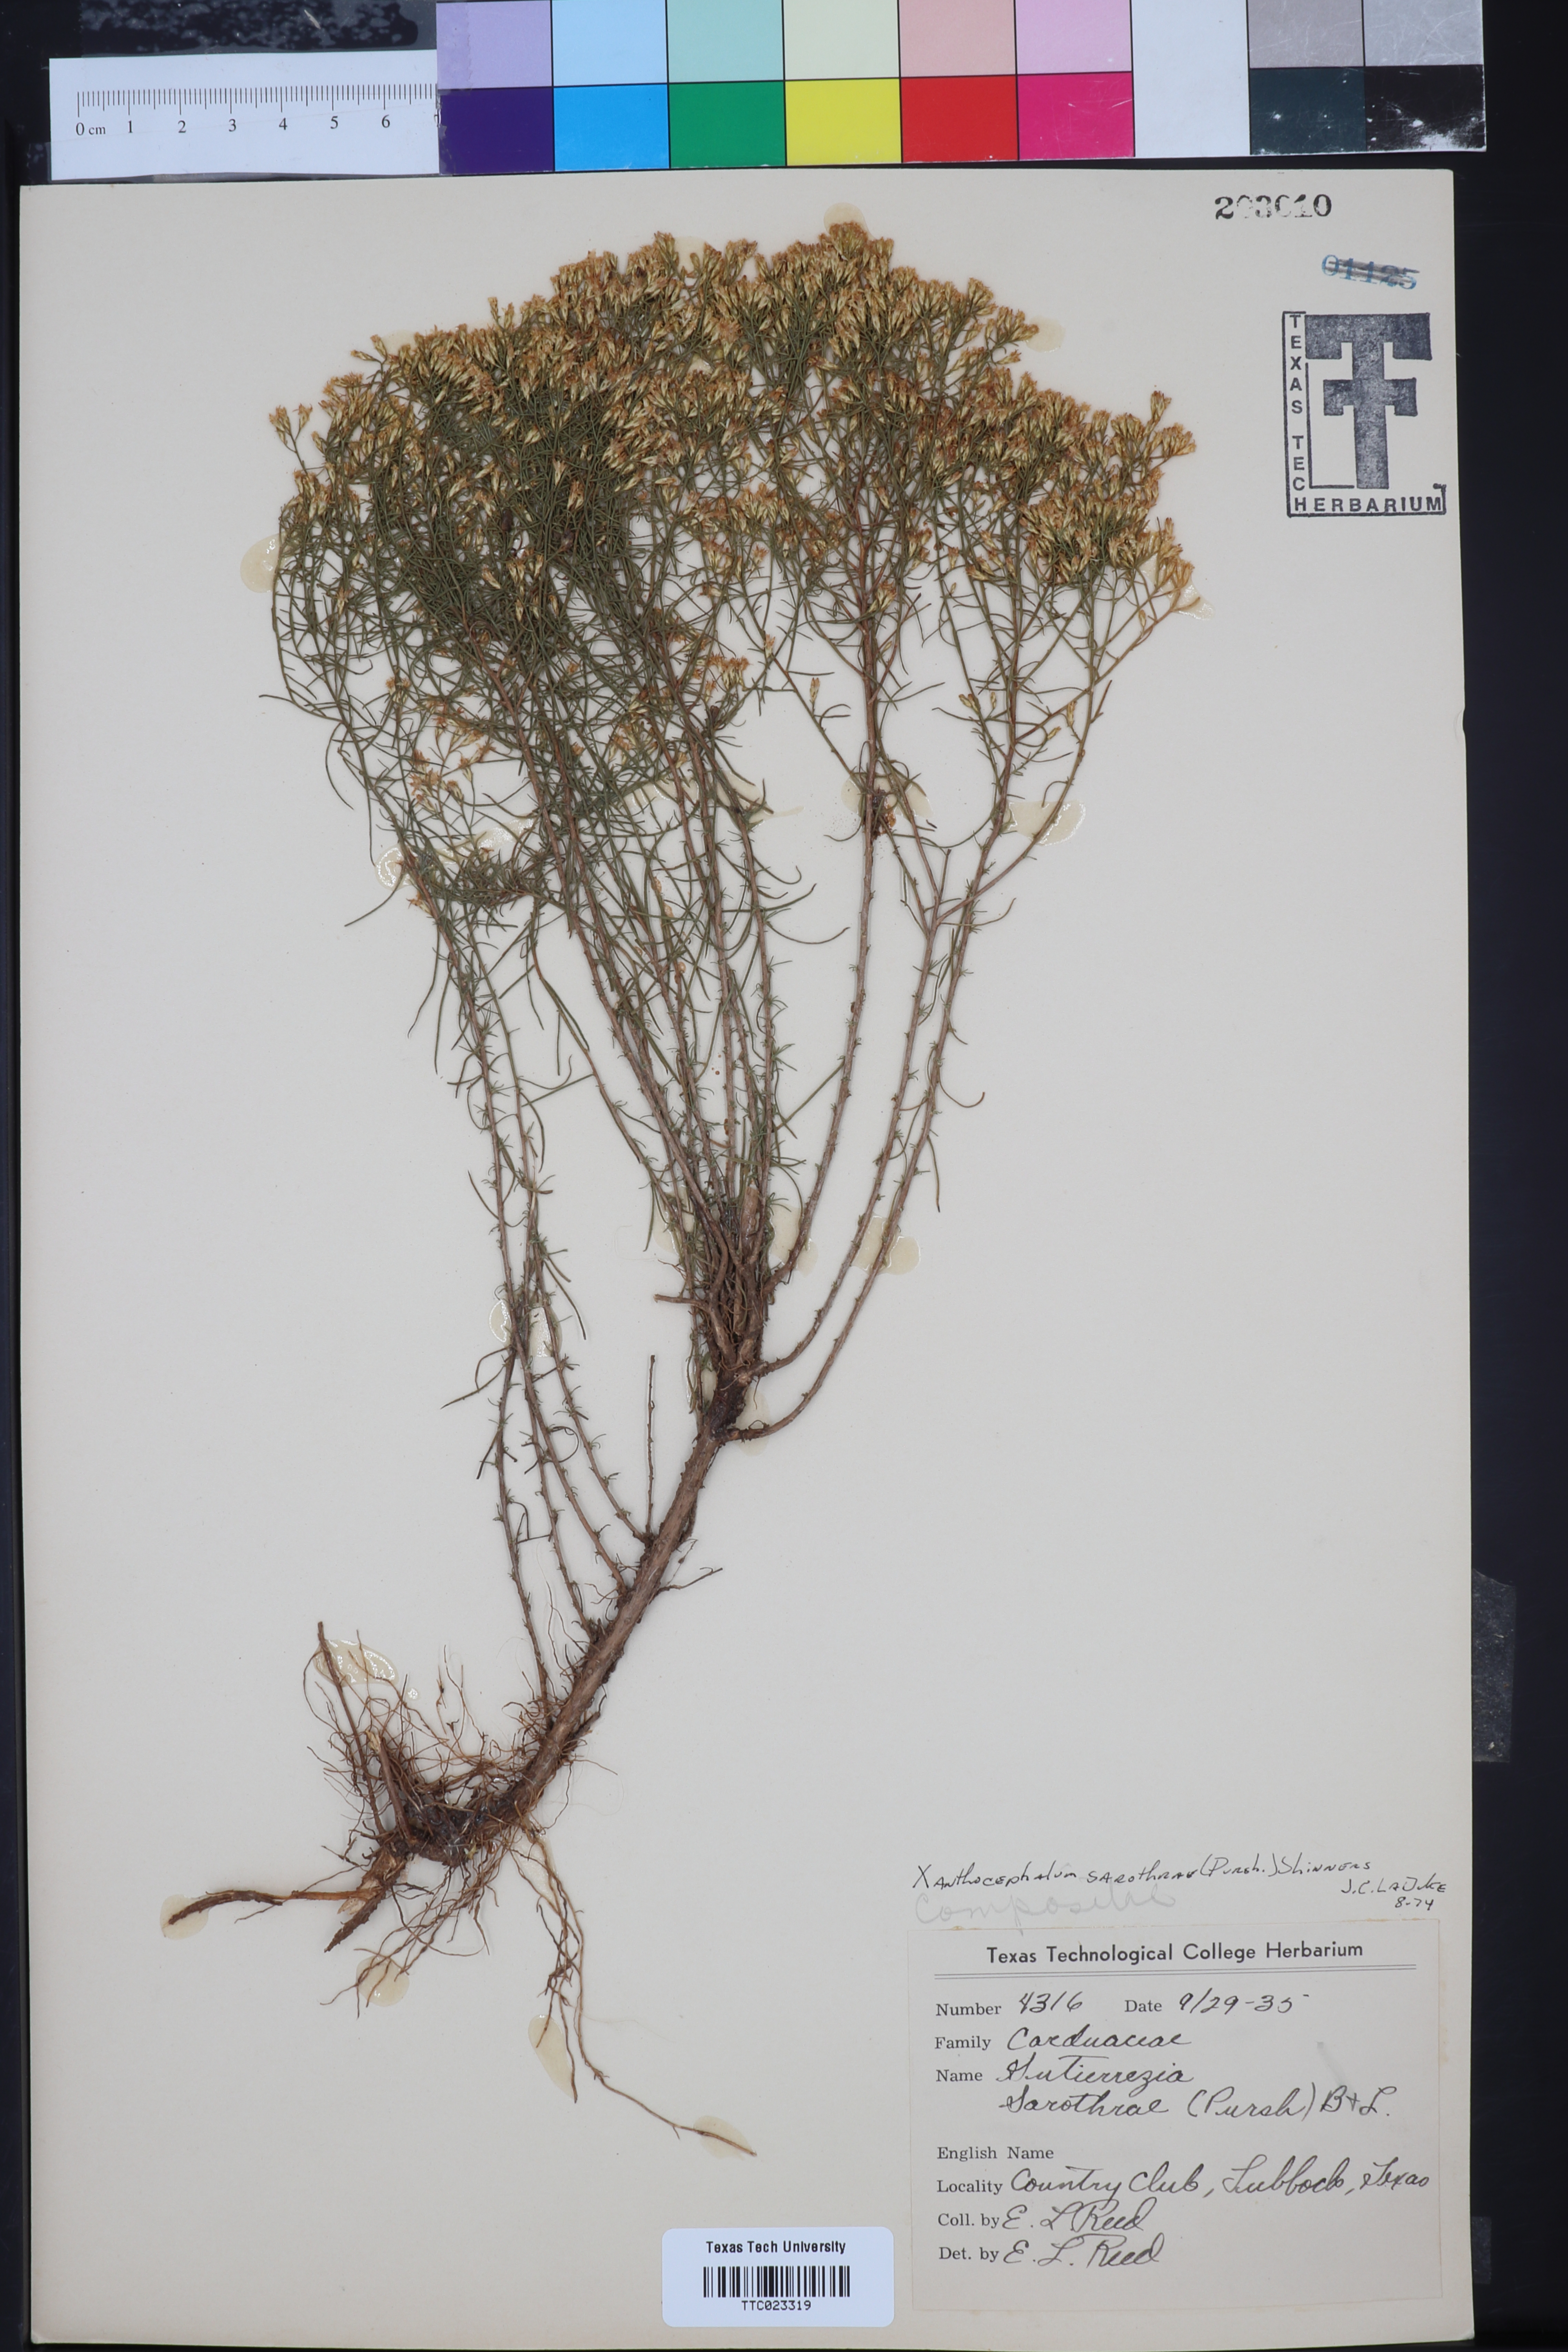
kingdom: Plantae
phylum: Tracheophyta
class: Magnoliopsida
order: Asterales
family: Asteraceae
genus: Gutierrezia
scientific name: Gutierrezia sarothrae
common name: Broom snakeweed
